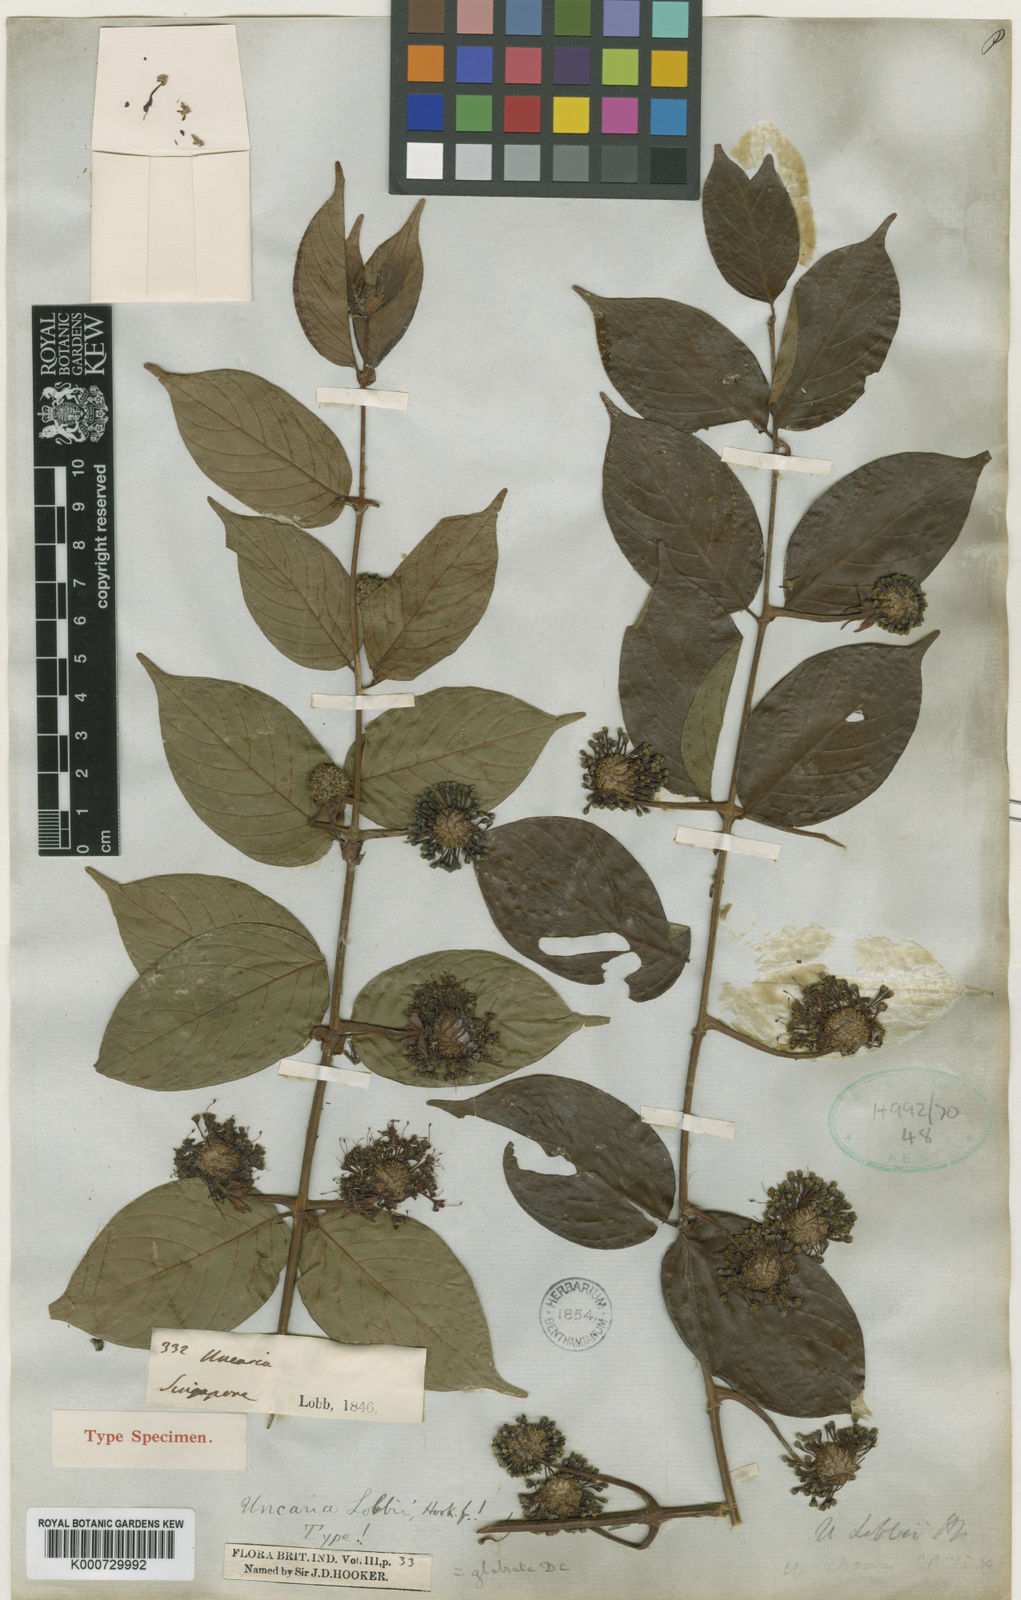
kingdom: Plantae
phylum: Tracheophyta
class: Magnoliopsida
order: Gentianales
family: Rubiaceae
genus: Uncaria
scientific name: Uncaria lanosa
